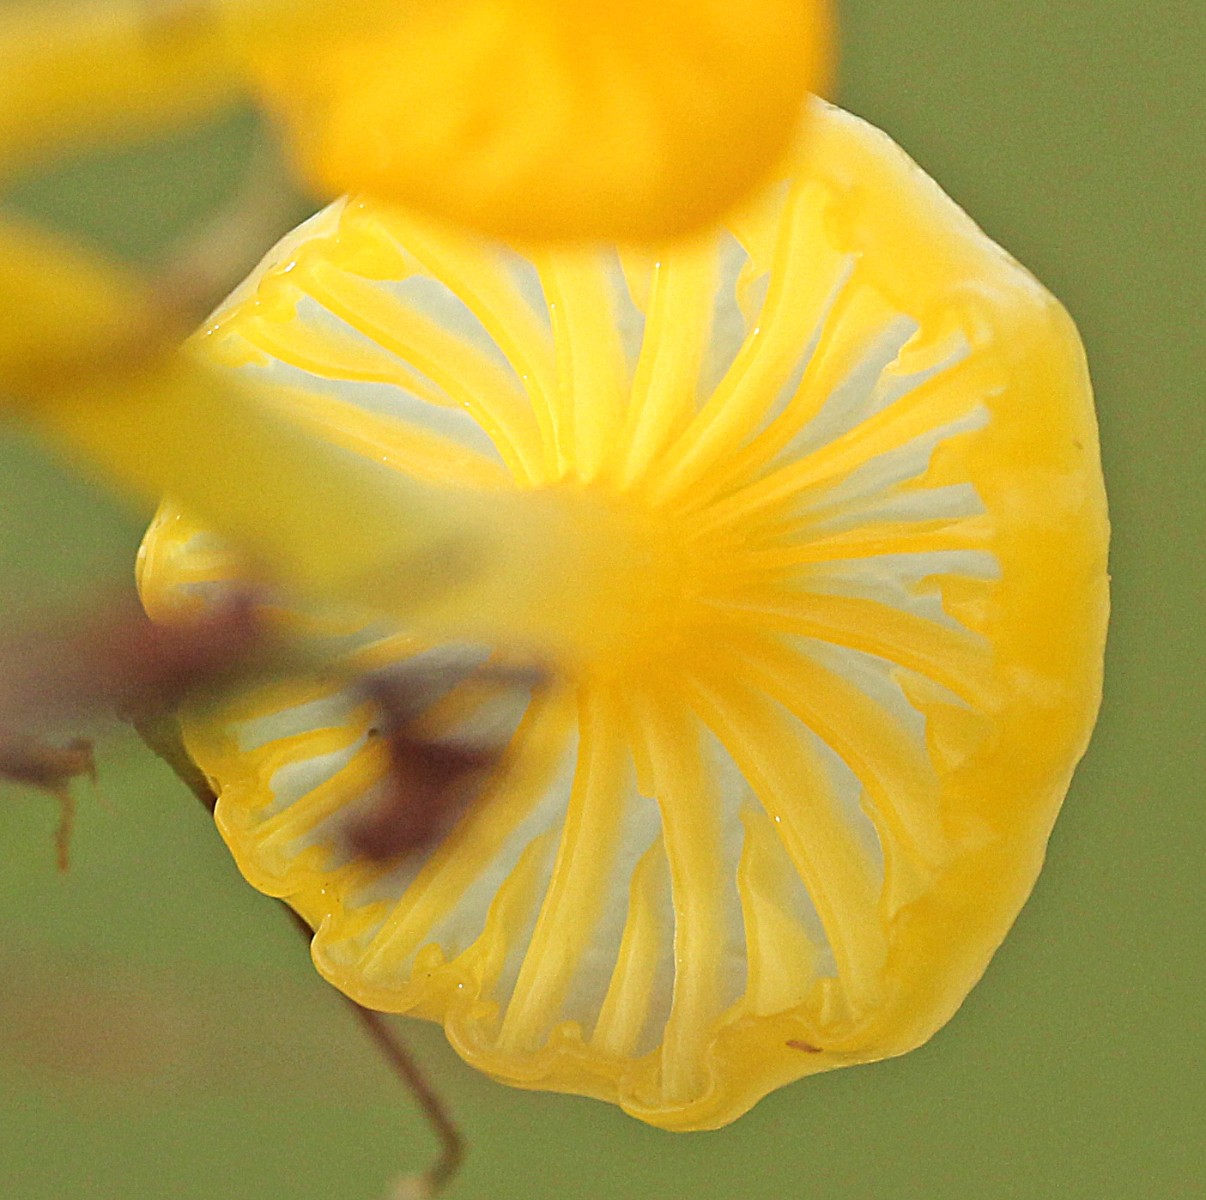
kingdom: Fungi
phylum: Basidiomycota
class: Agaricomycetes
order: Agaricales
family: Hygrophoraceae
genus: Gloioxanthomyces
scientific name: Gloioxanthomyces vitellinus
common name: kromgul vokshat
